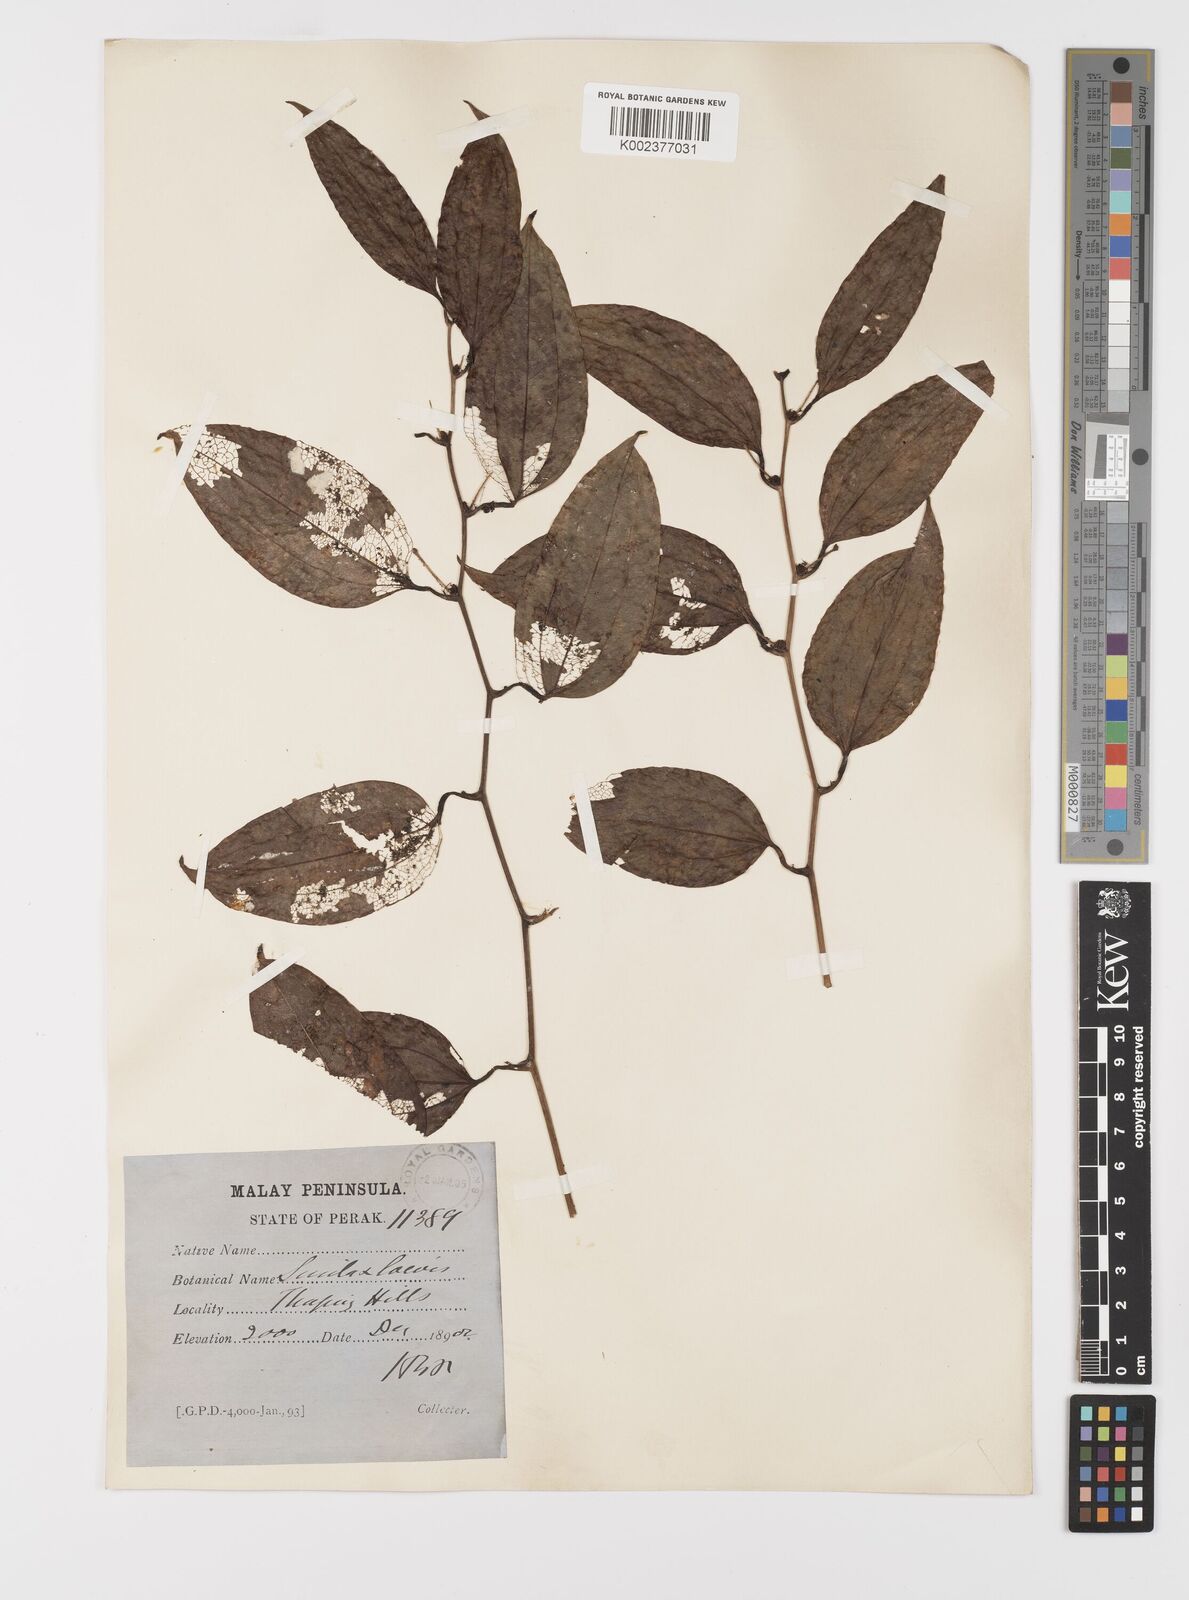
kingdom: Plantae
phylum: Tracheophyta
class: Liliopsida
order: Liliales
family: Smilacaceae
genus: Smilax
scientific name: Smilax laevis
